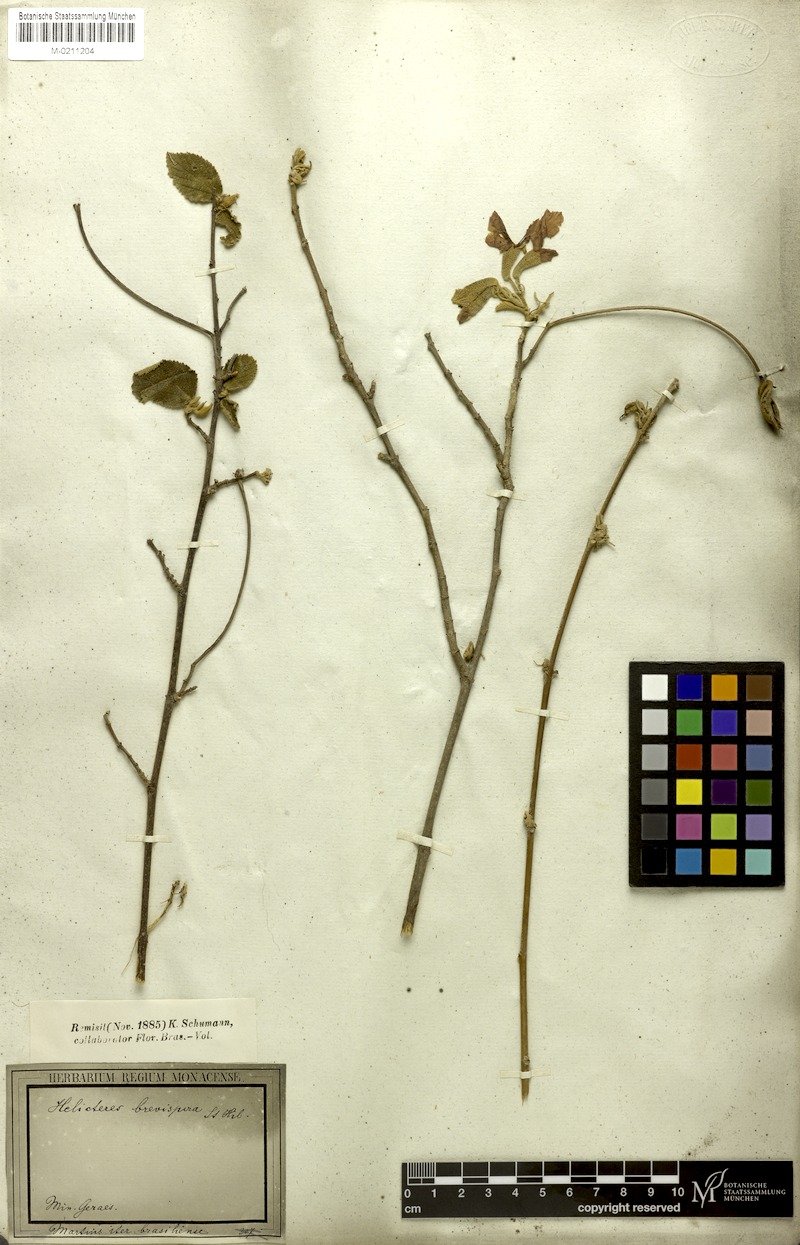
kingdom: Plantae
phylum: Tracheophyta
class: Magnoliopsida
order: Malvales
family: Malvaceae
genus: Helicteres
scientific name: Helicteres brevispira
